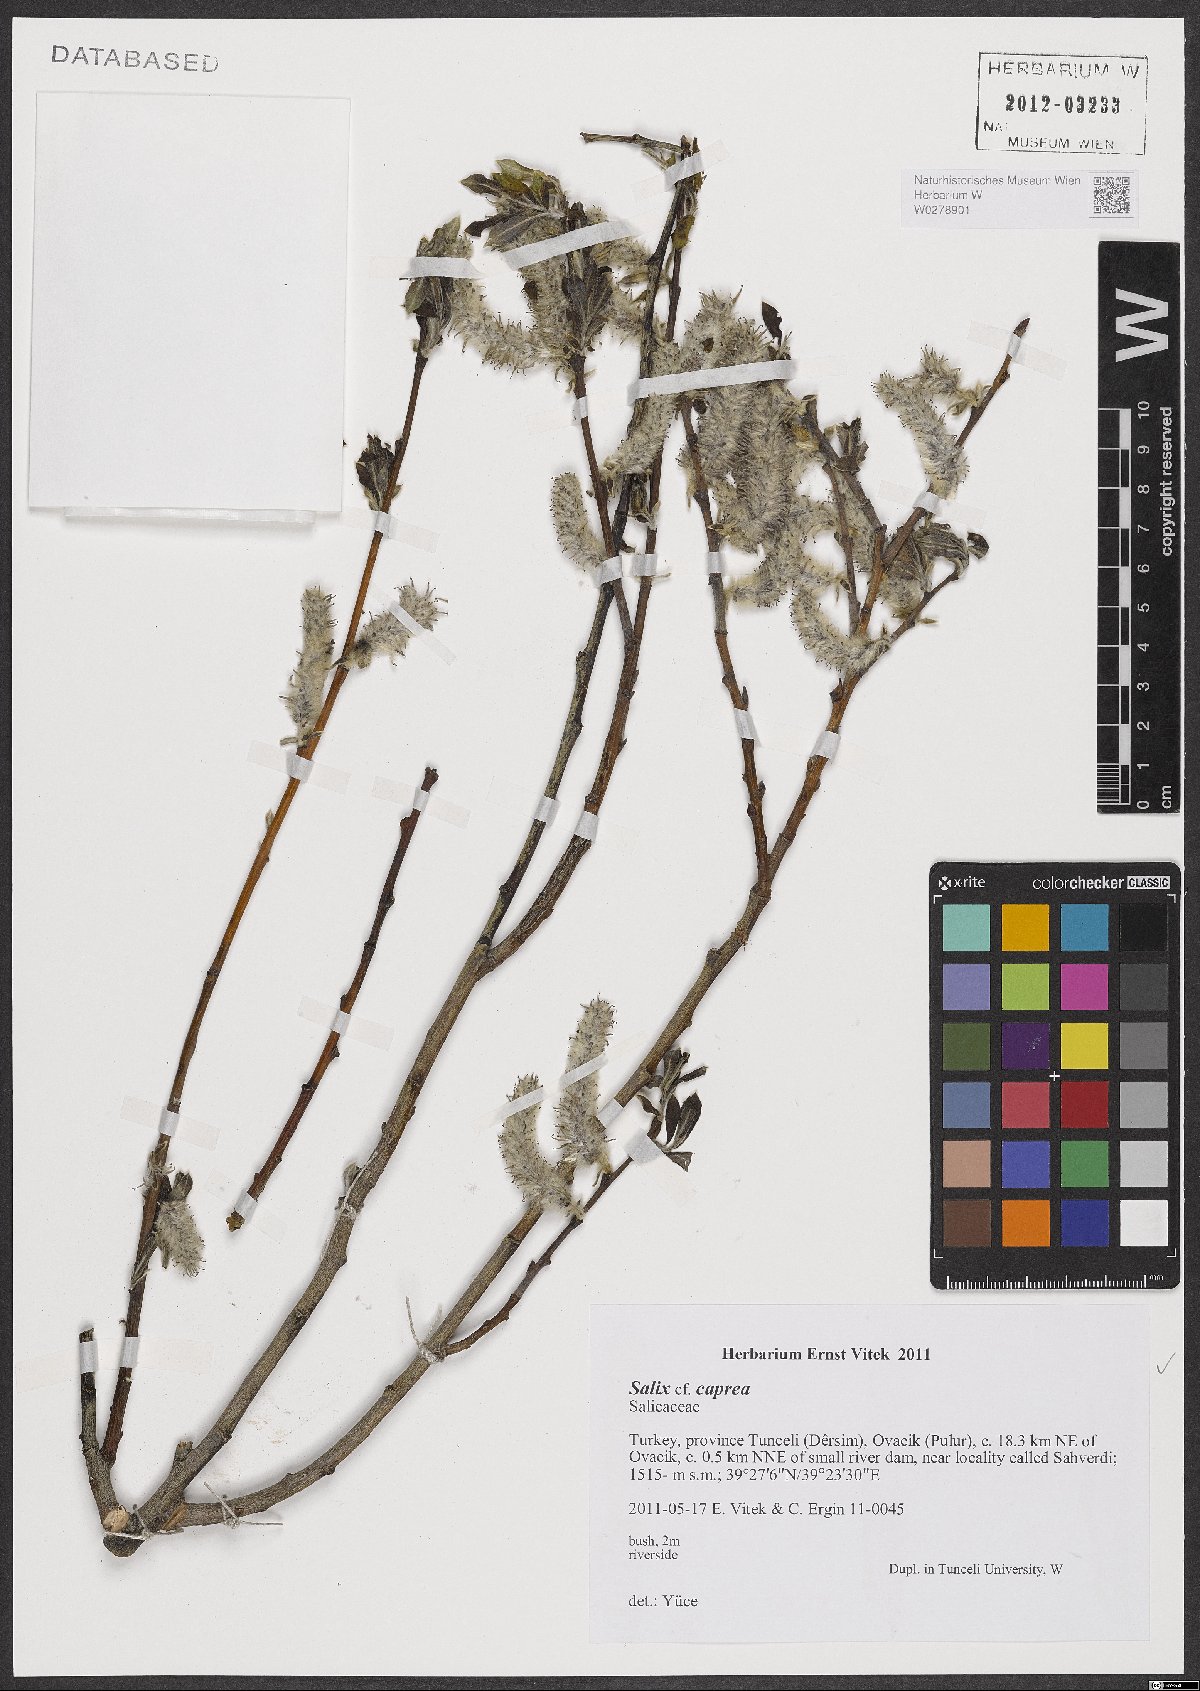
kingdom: Plantae
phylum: Tracheophyta
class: Magnoliopsida
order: Malpighiales
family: Salicaceae
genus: Salix
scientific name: Salix caprea
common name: Goat willow
